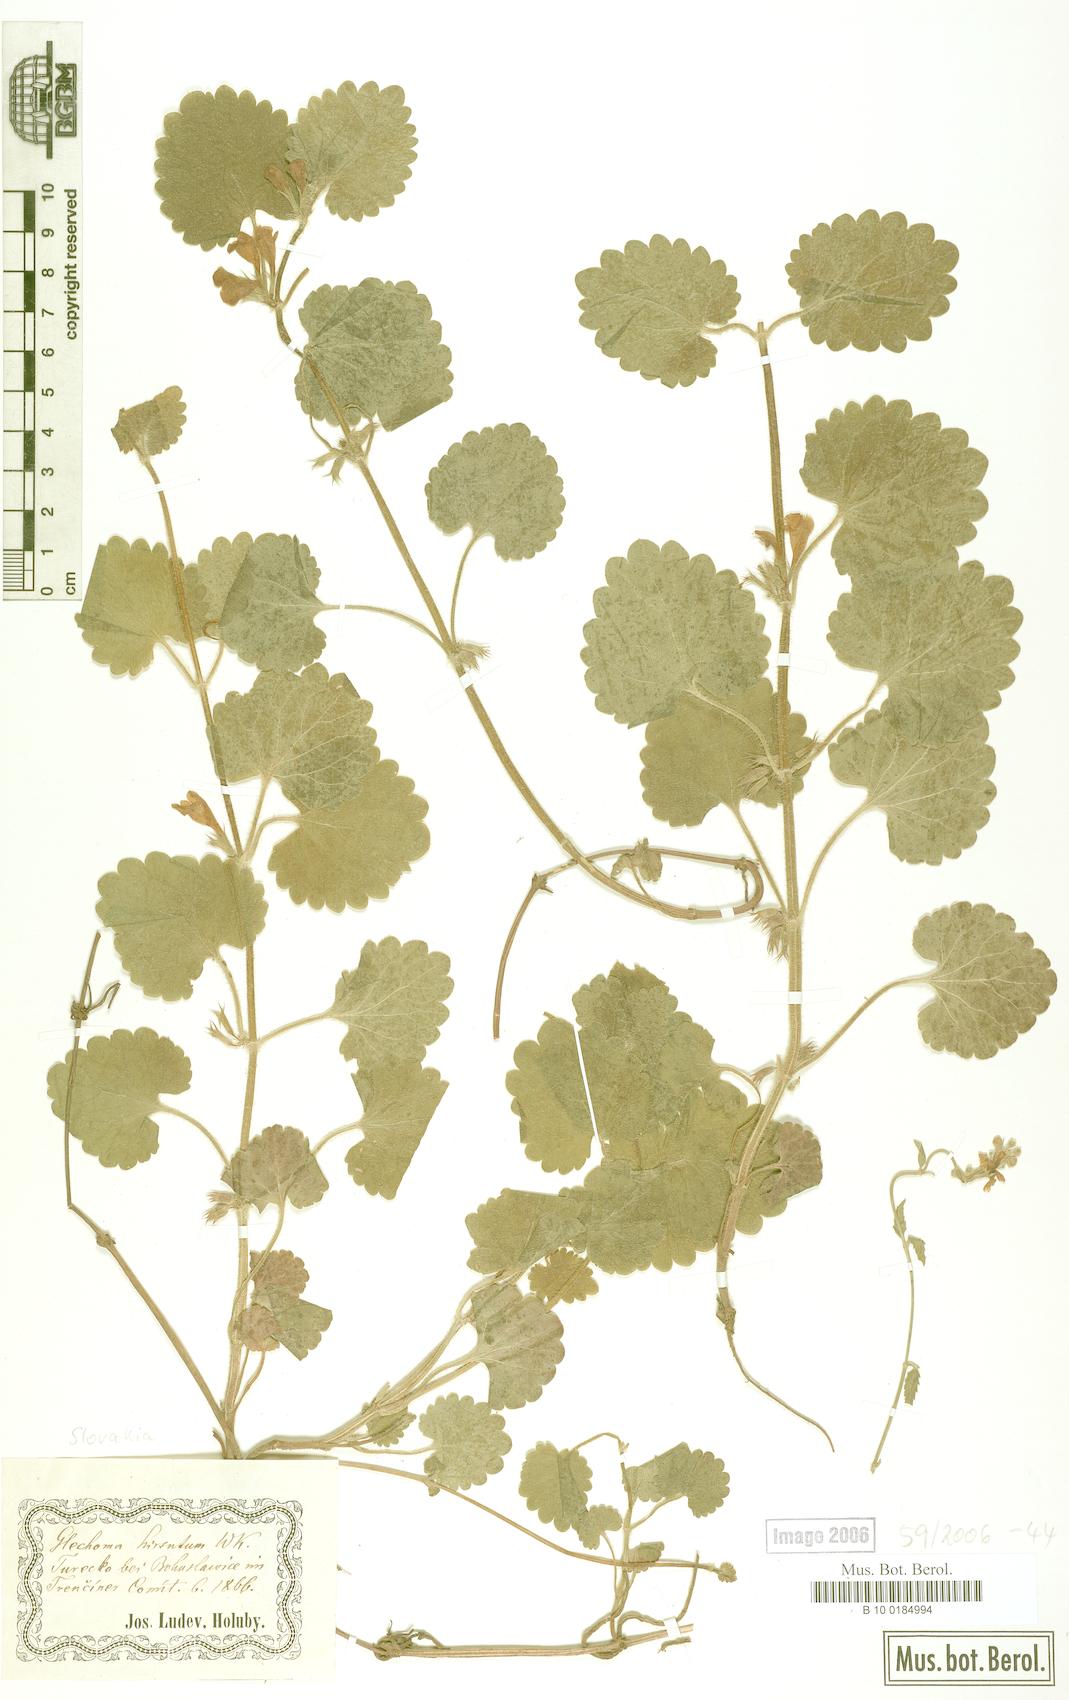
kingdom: Plantae
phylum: Tracheophyta
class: Magnoliopsida
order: Lamiales
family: Lamiaceae
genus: Glechoma
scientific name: Glechoma hirsuta
